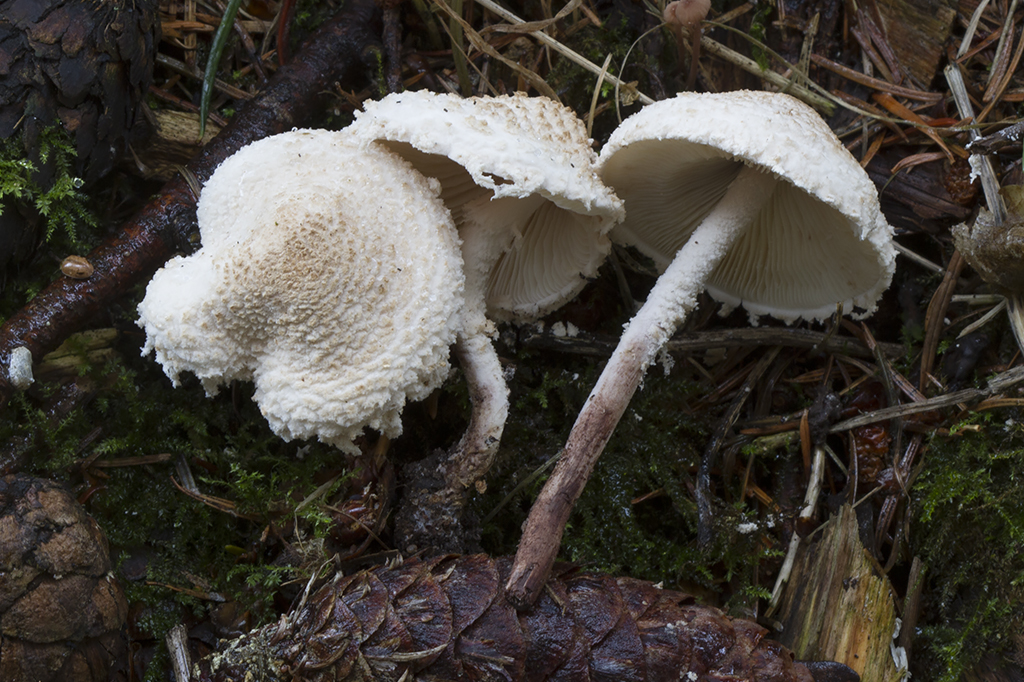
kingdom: Fungi
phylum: Basidiomycota
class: Agaricomycetes
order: Agaricales
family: Agaricaceae
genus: Cystolepiota
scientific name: Cystolepiota adulterina
